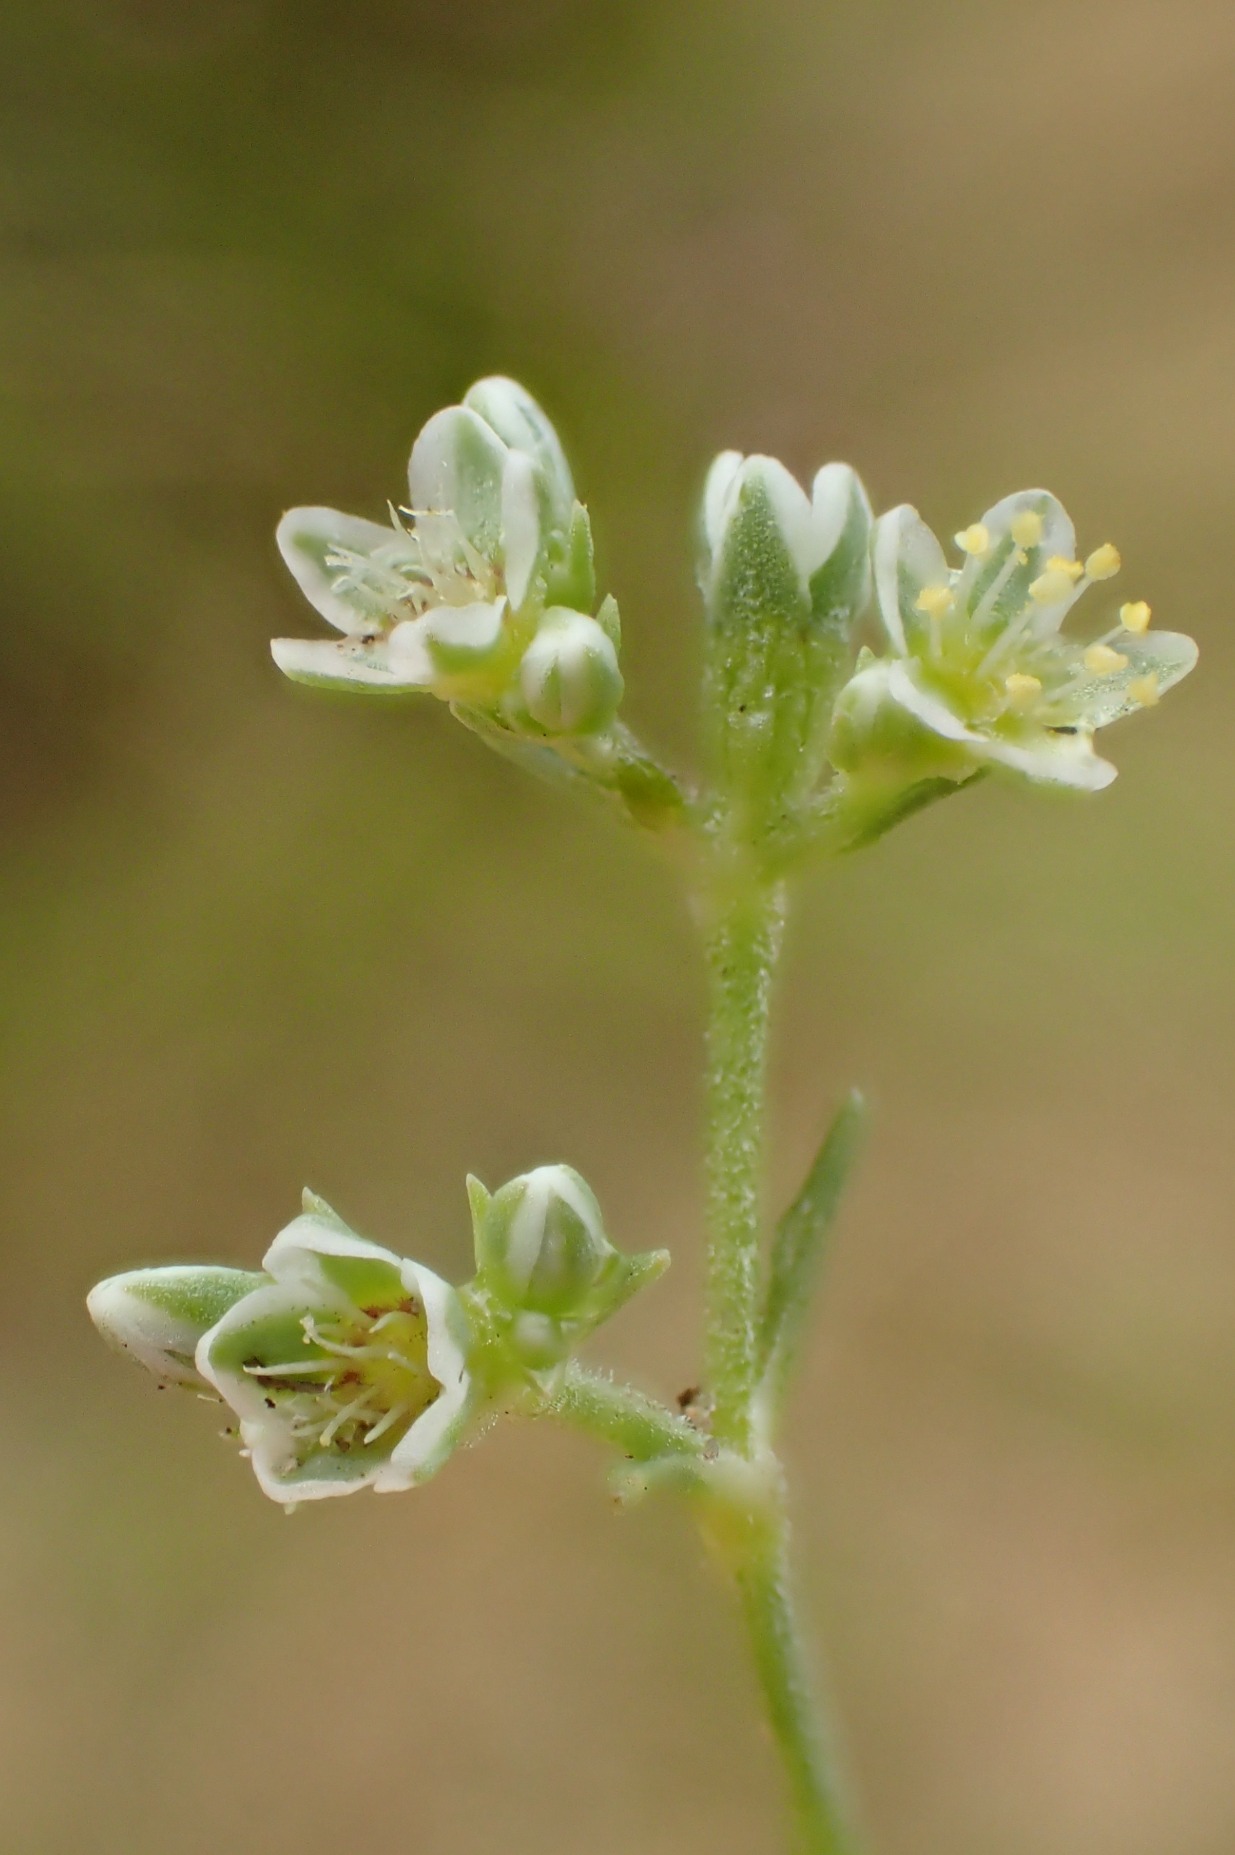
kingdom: Plantae
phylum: Tracheophyta
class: Magnoliopsida
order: Caryophyllales
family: Caryophyllaceae
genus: Scleranthus
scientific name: Scleranthus perennis
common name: Flerårig knavel
